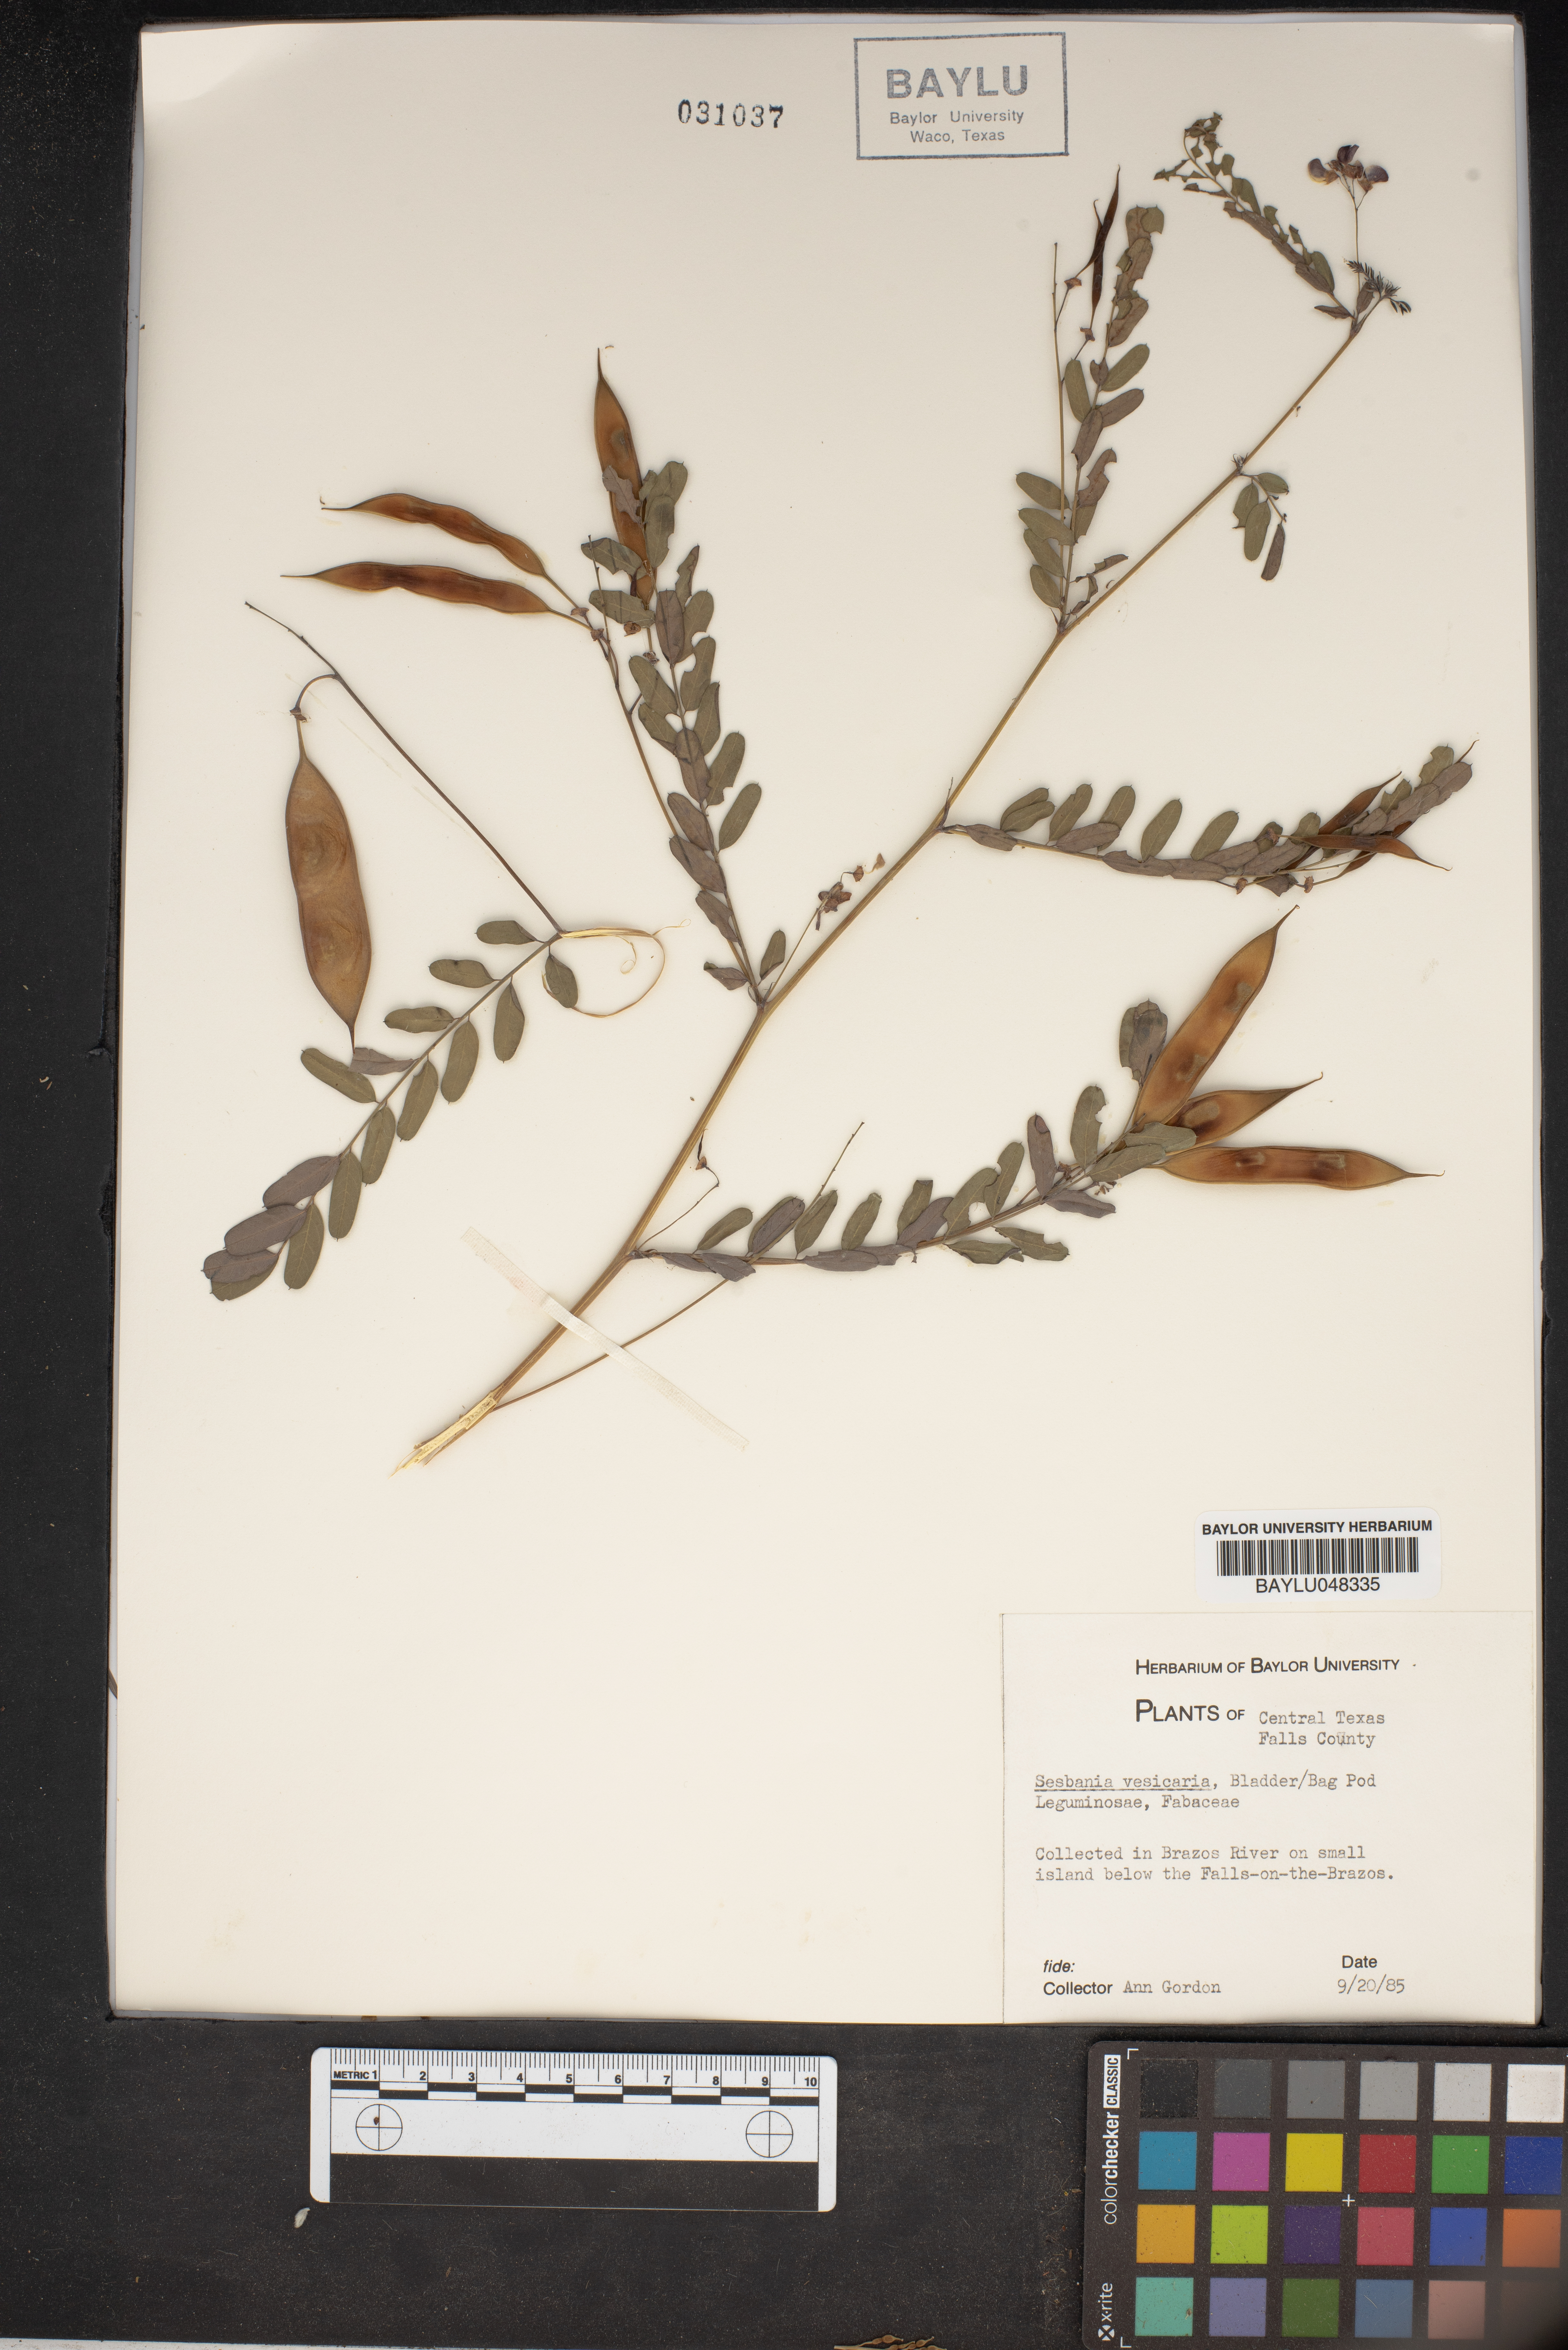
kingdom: Plantae
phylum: Tracheophyta
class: Magnoliopsida
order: Fabales
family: Fabaceae
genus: Sesbania
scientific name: Sesbania vesicaria
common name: Bagpod
